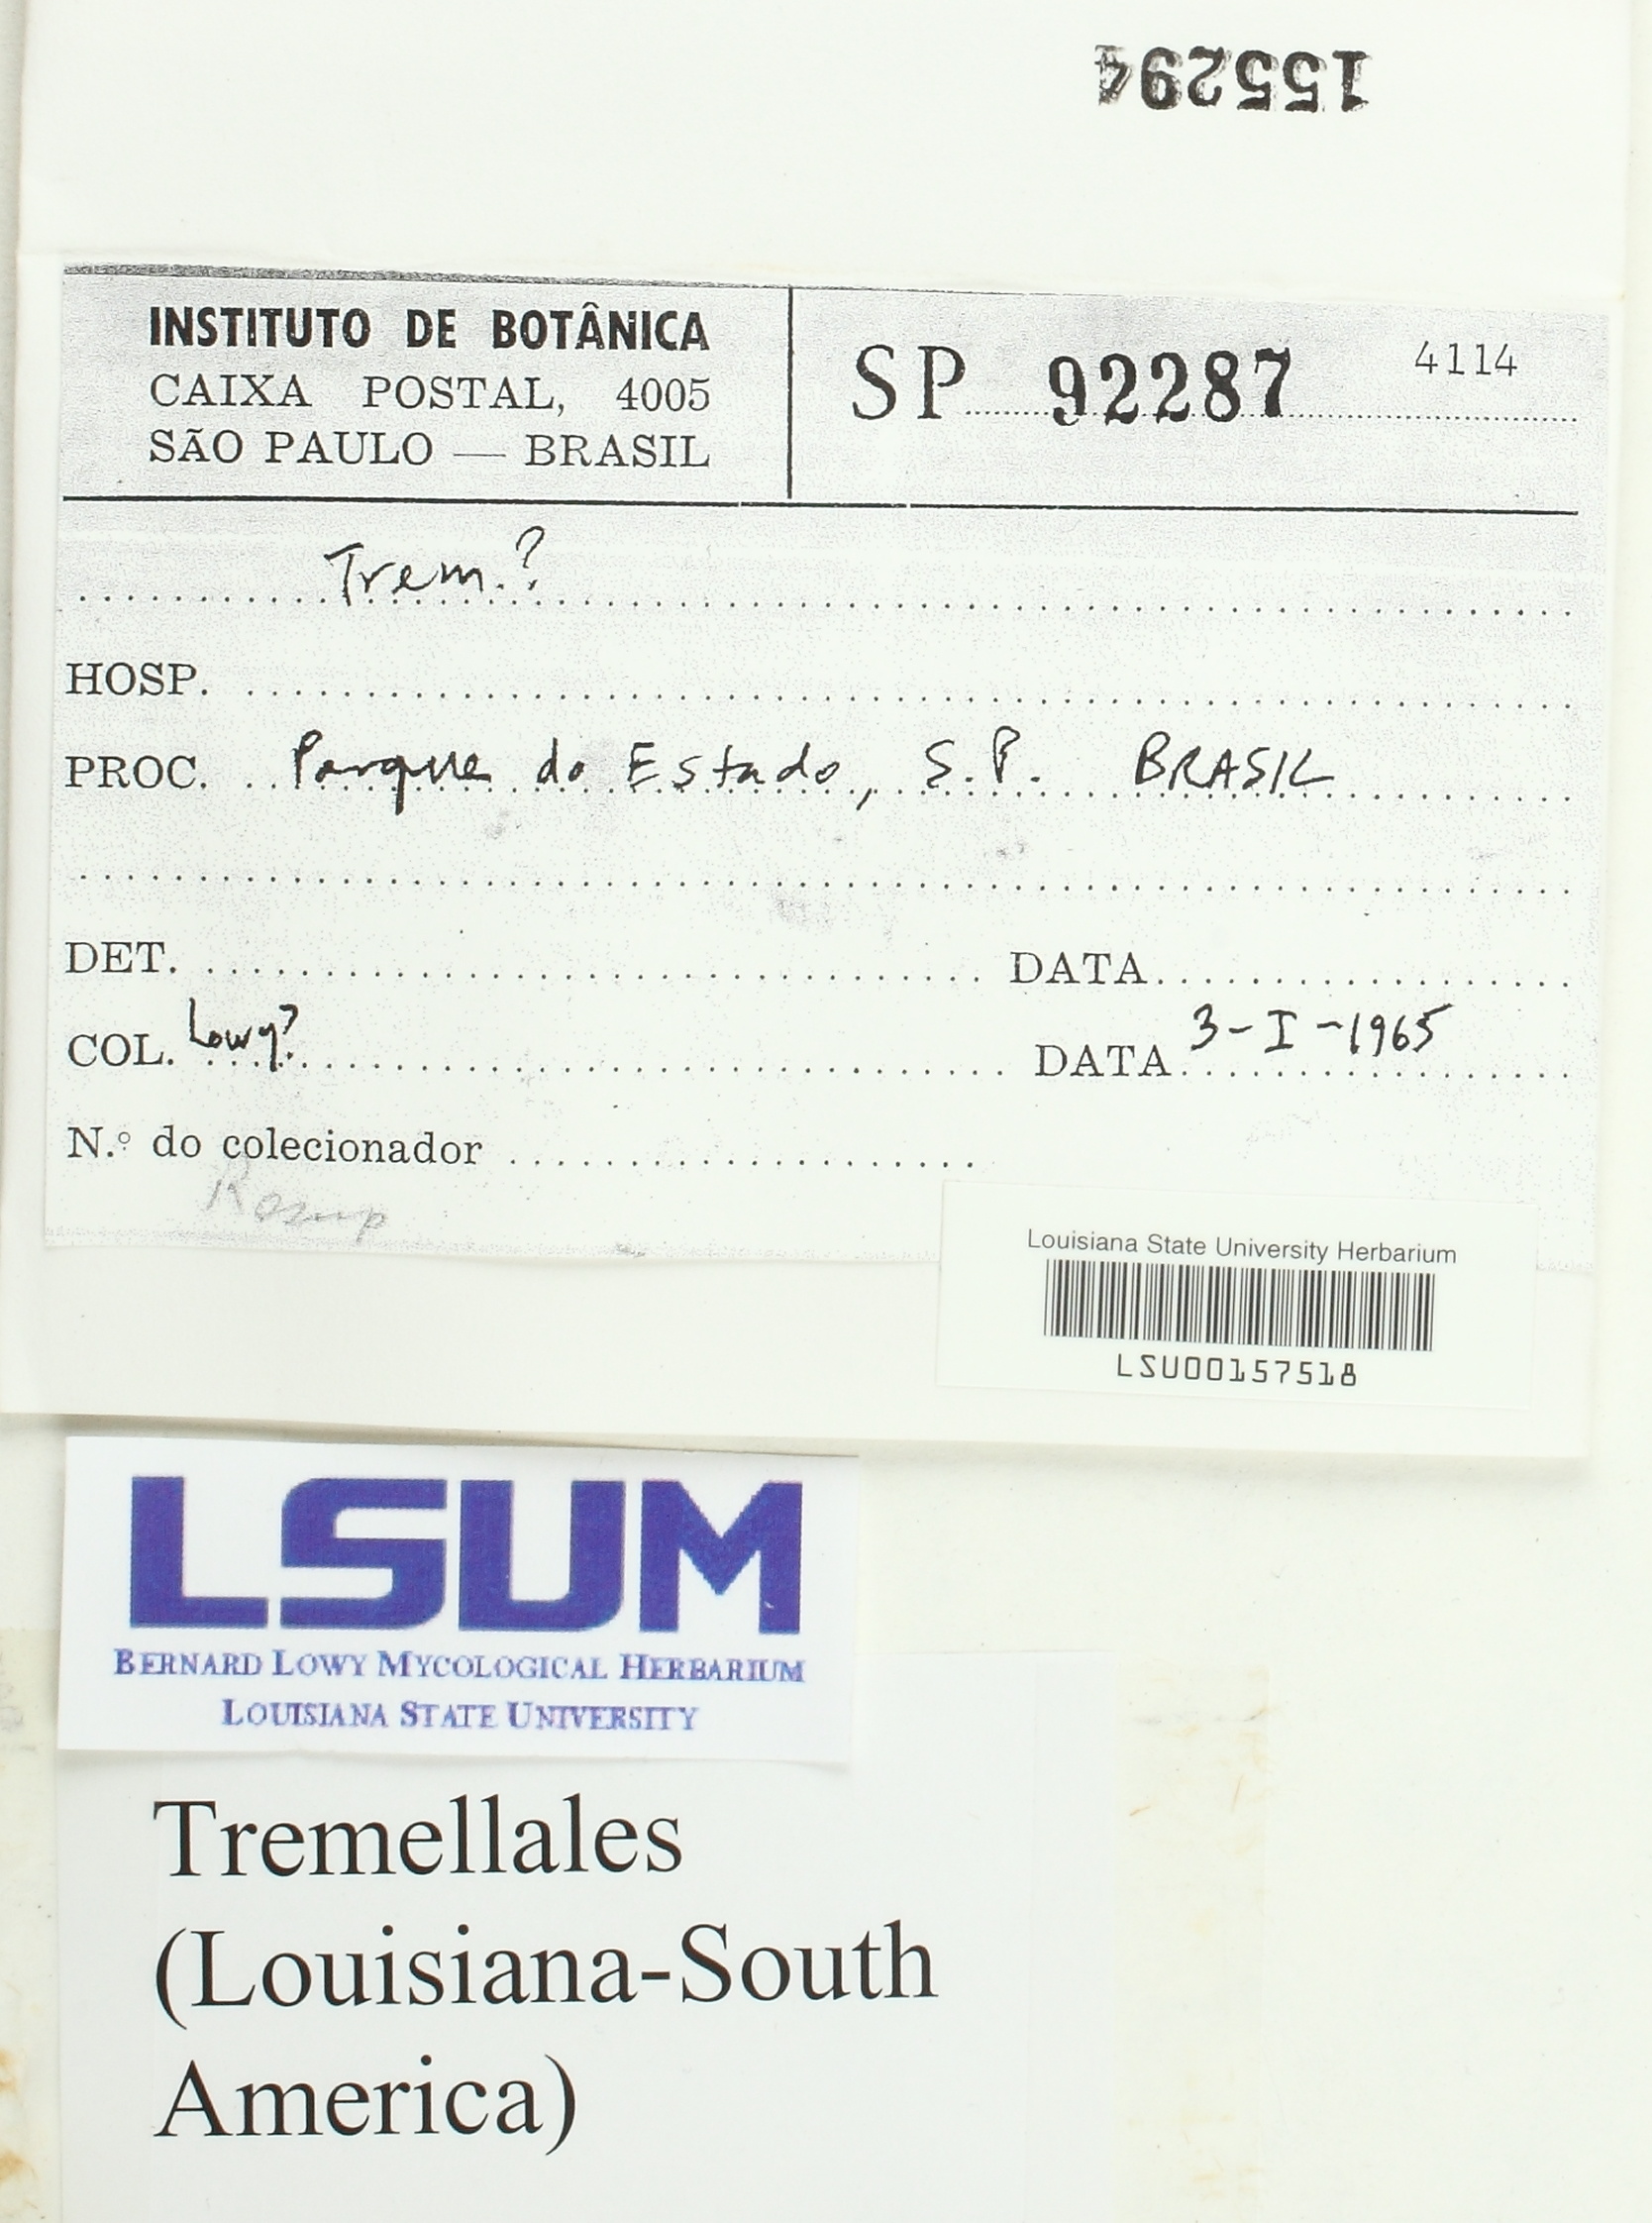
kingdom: Fungi
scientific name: Fungi
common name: Fungi
